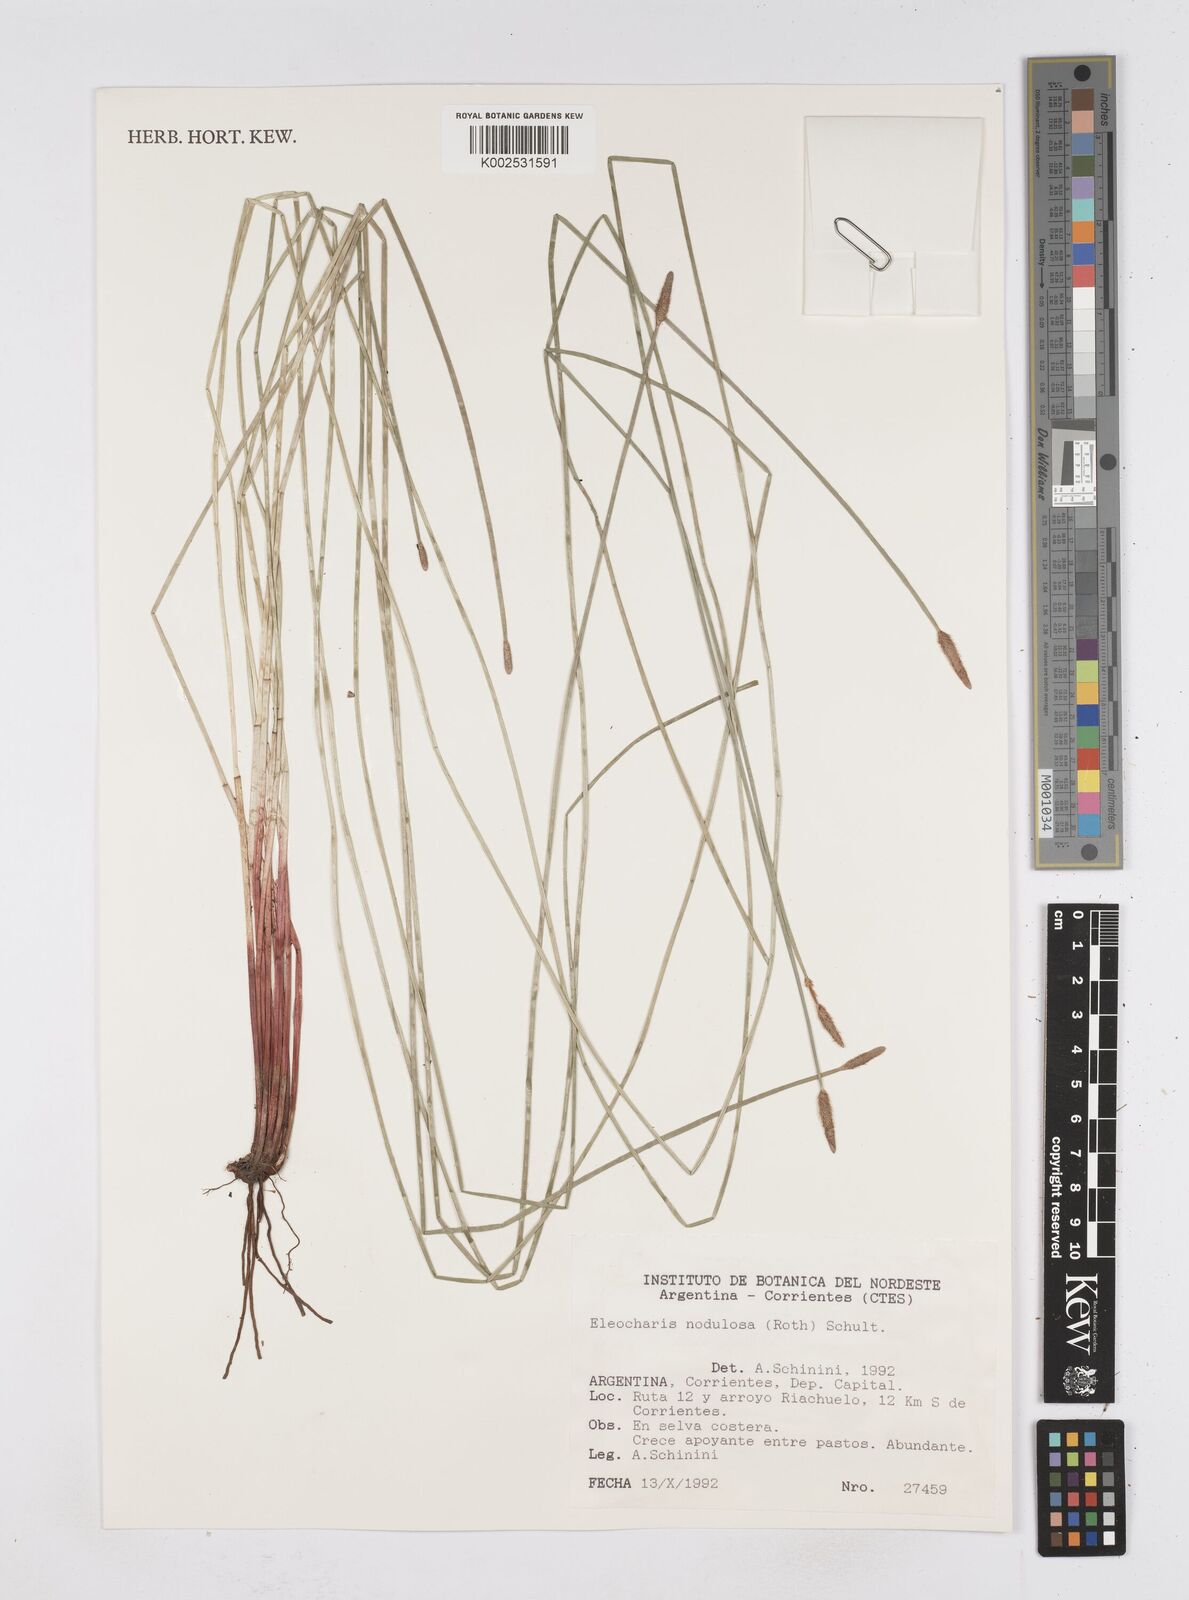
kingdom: Plantae
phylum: Tracheophyta
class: Liliopsida
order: Poales
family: Cyperaceae
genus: Eleocharis
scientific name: Eleocharis montana
